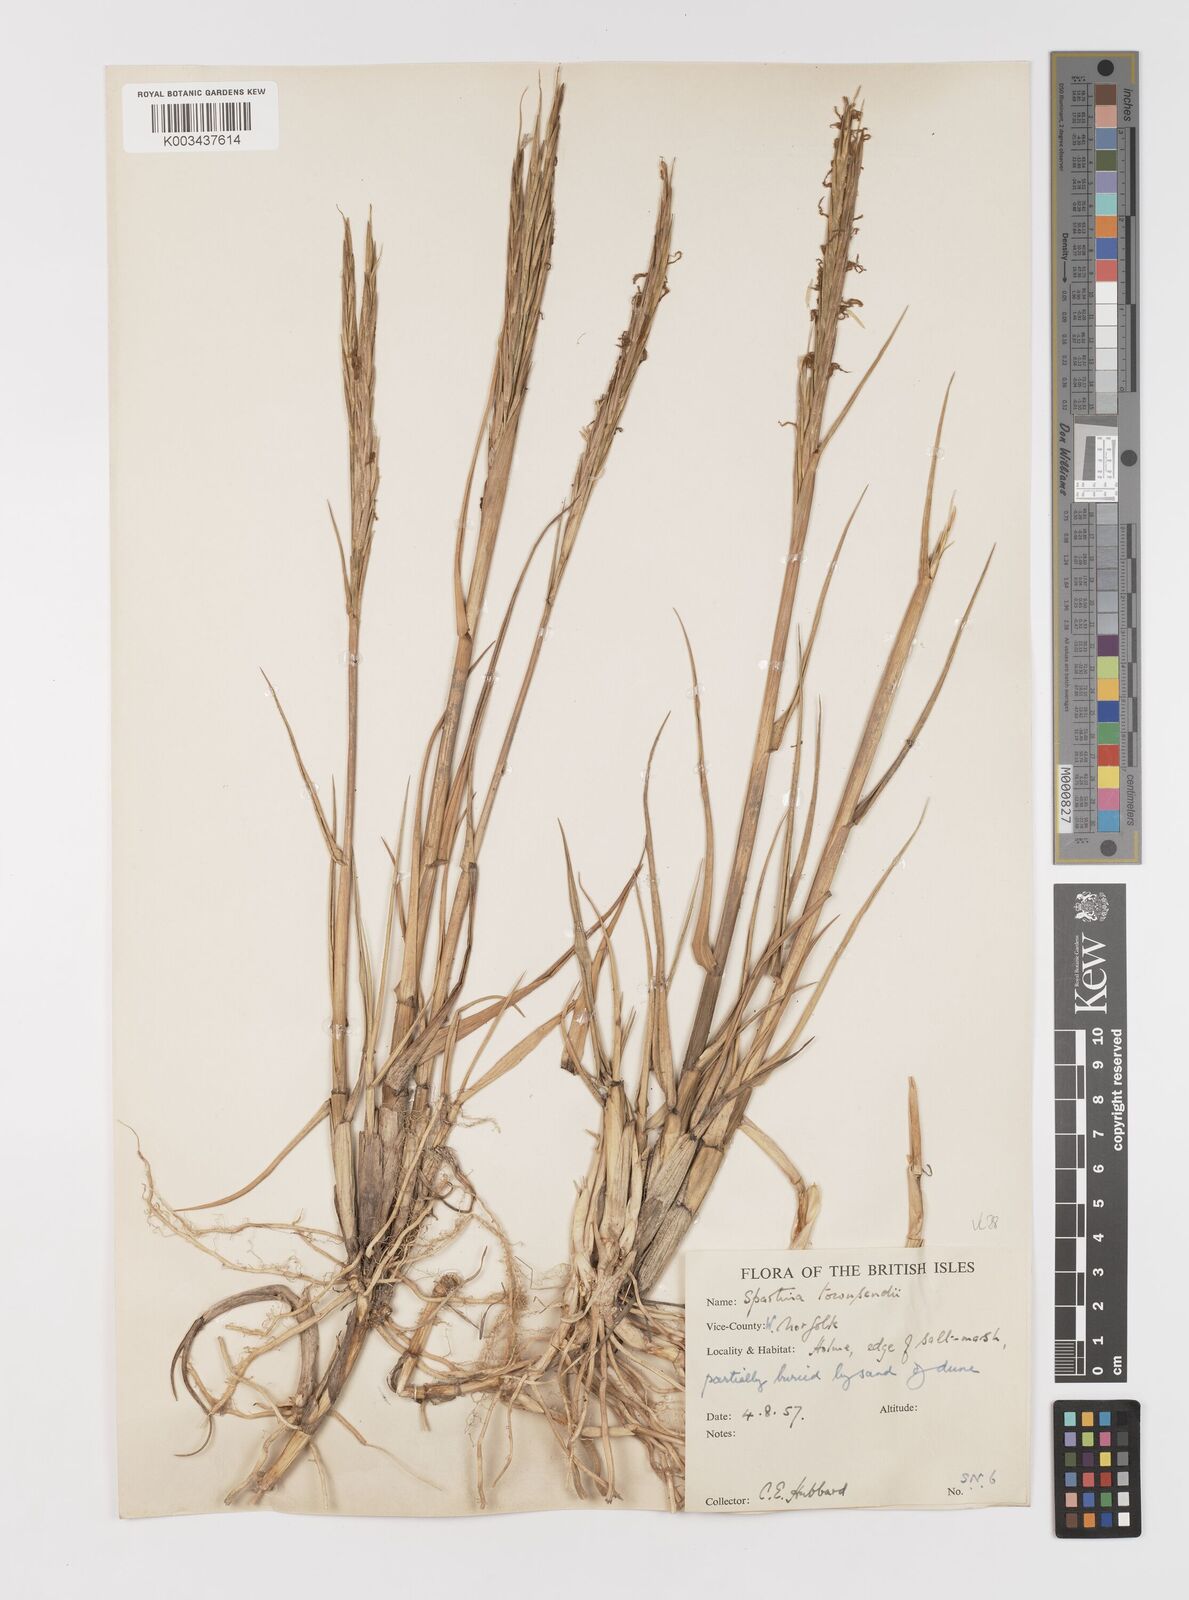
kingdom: Plantae
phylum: Tracheophyta
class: Liliopsida
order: Poales
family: Poaceae
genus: Sporobolus
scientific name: Sporobolus anglicus
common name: English cordgrass
